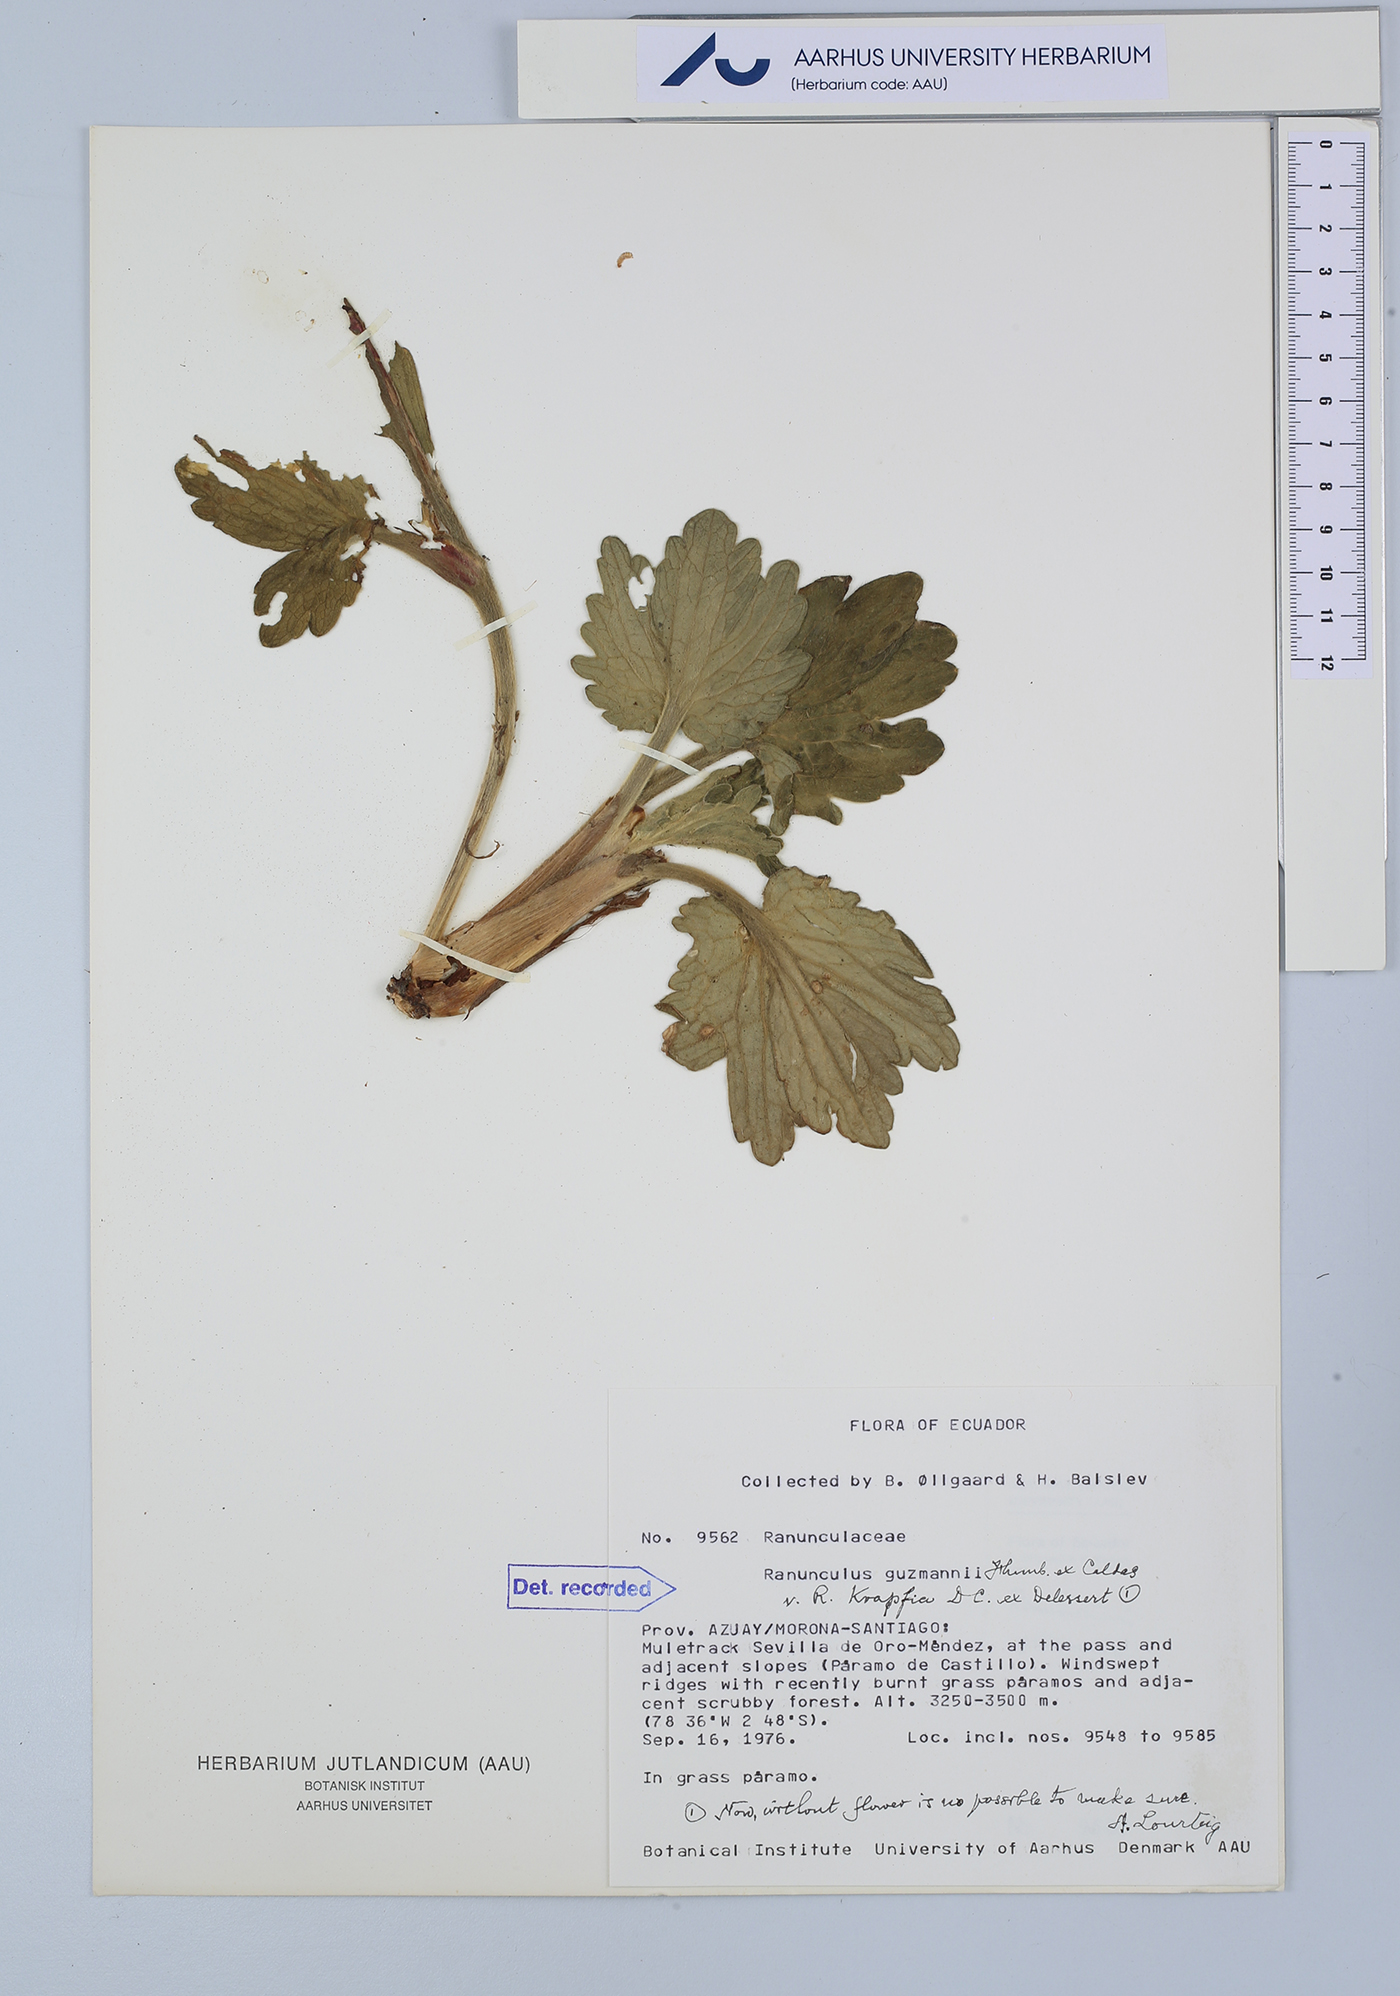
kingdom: Plantae
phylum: Tracheophyta
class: Magnoliopsida
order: Ranunculales
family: Ranunculaceae
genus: Krapfia
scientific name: Krapfia ranunculina
